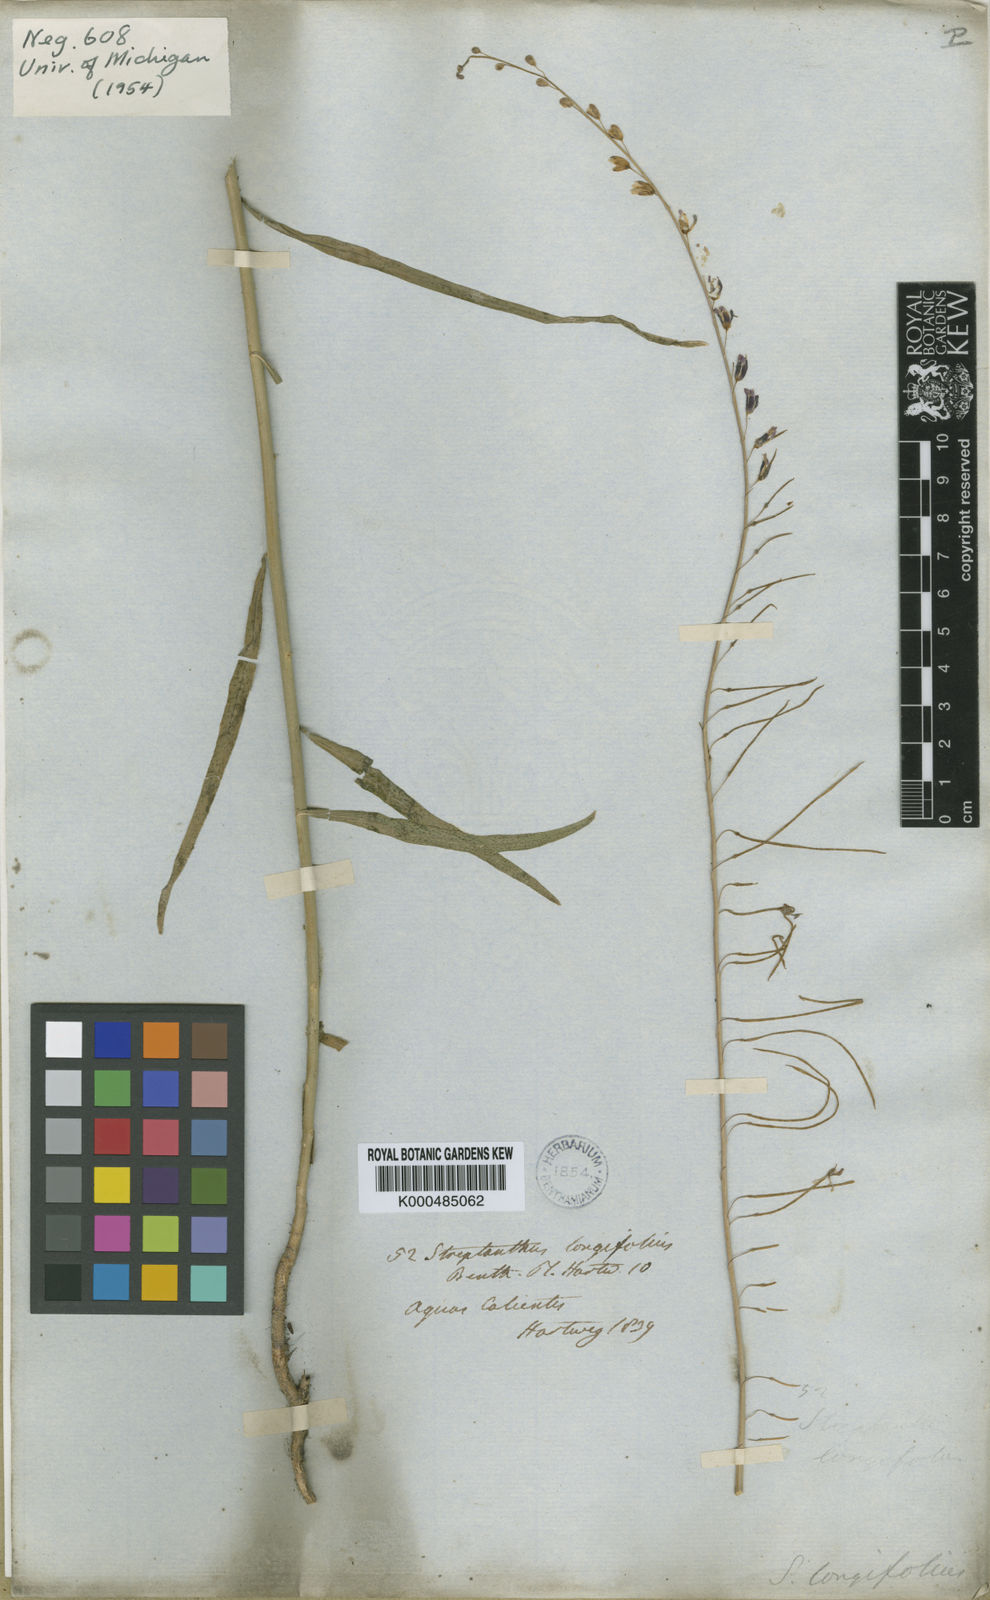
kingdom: Plantae
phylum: Tracheophyta
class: Magnoliopsida
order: Brassicales
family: Brassicaceae
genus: Pennellia
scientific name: Pennellia longifolia
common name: Longleaf mock thelypody
